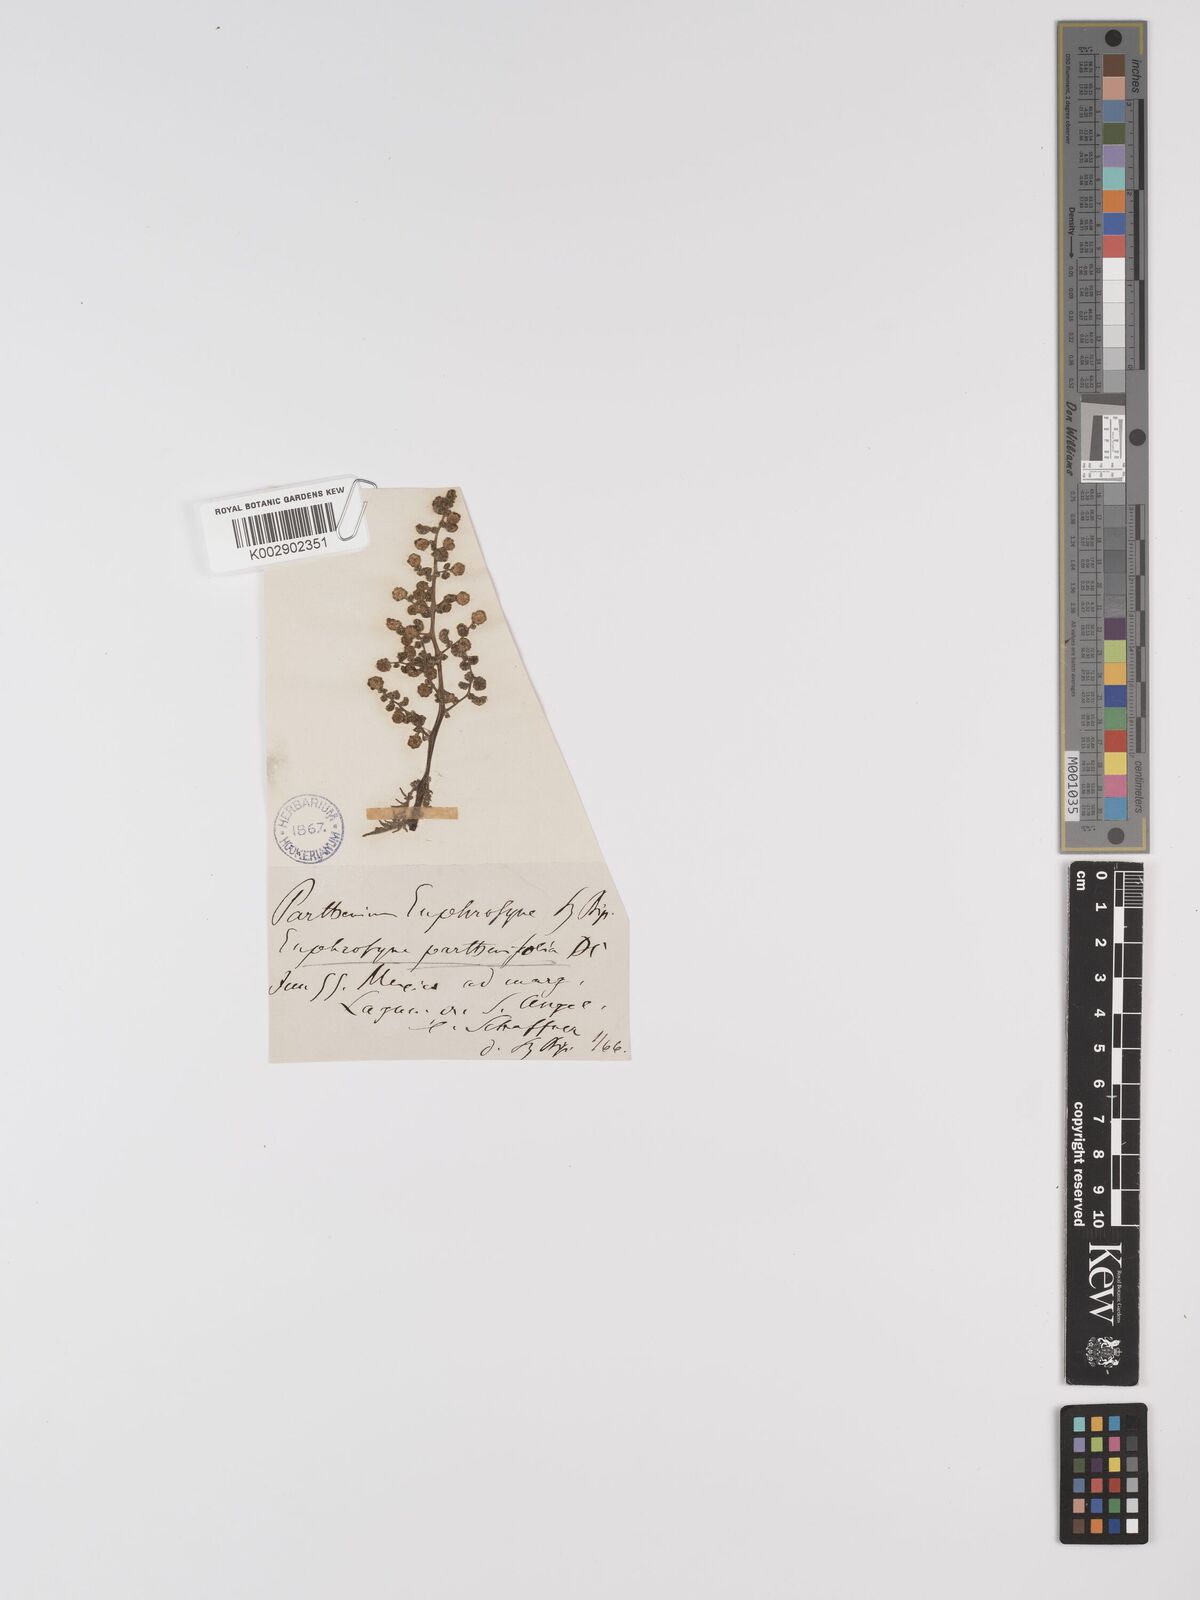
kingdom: Plantae
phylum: Tracheophyta
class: Magnoliopsida
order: Asterales
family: Asteraceae
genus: Euphrosyne
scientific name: Euphrosyne partheniifolia
